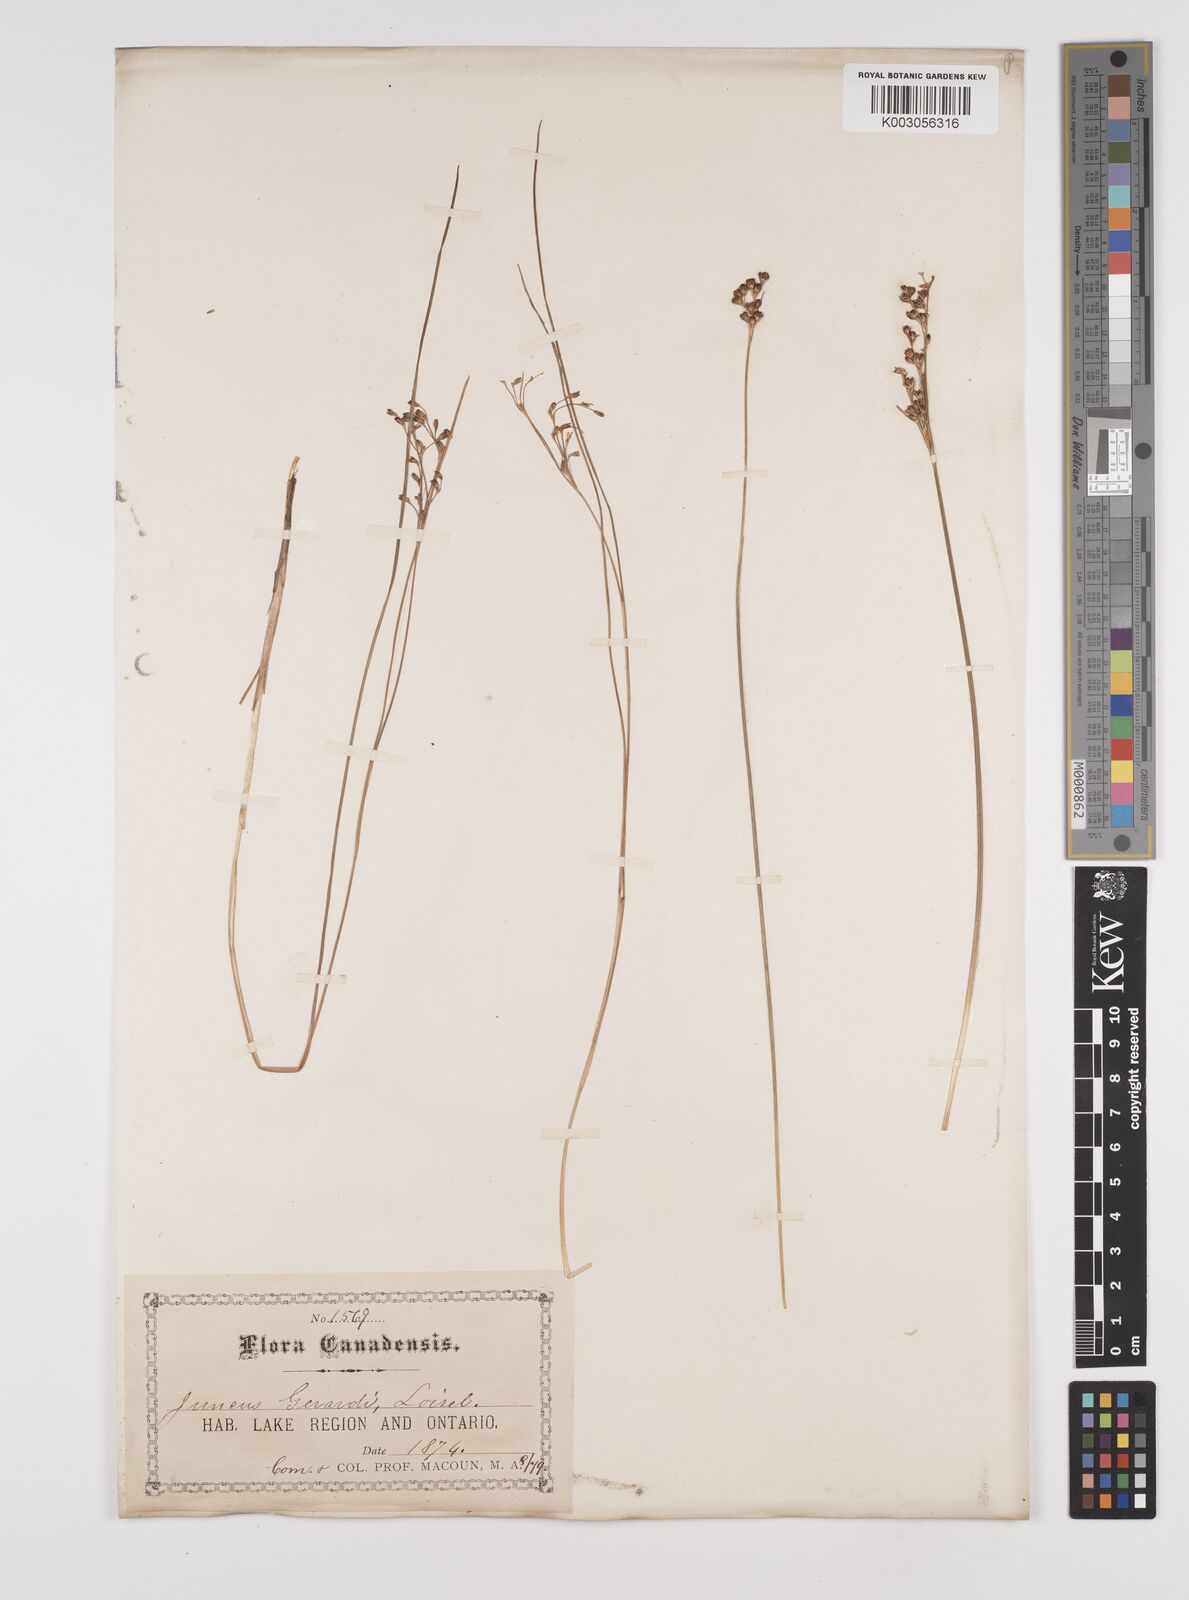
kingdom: Plantae
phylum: Tracheophyta
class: Liliopsida
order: Poales
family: Juncaceae
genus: Juncus
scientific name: Juncus gerardi
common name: Saltmarsh rush
